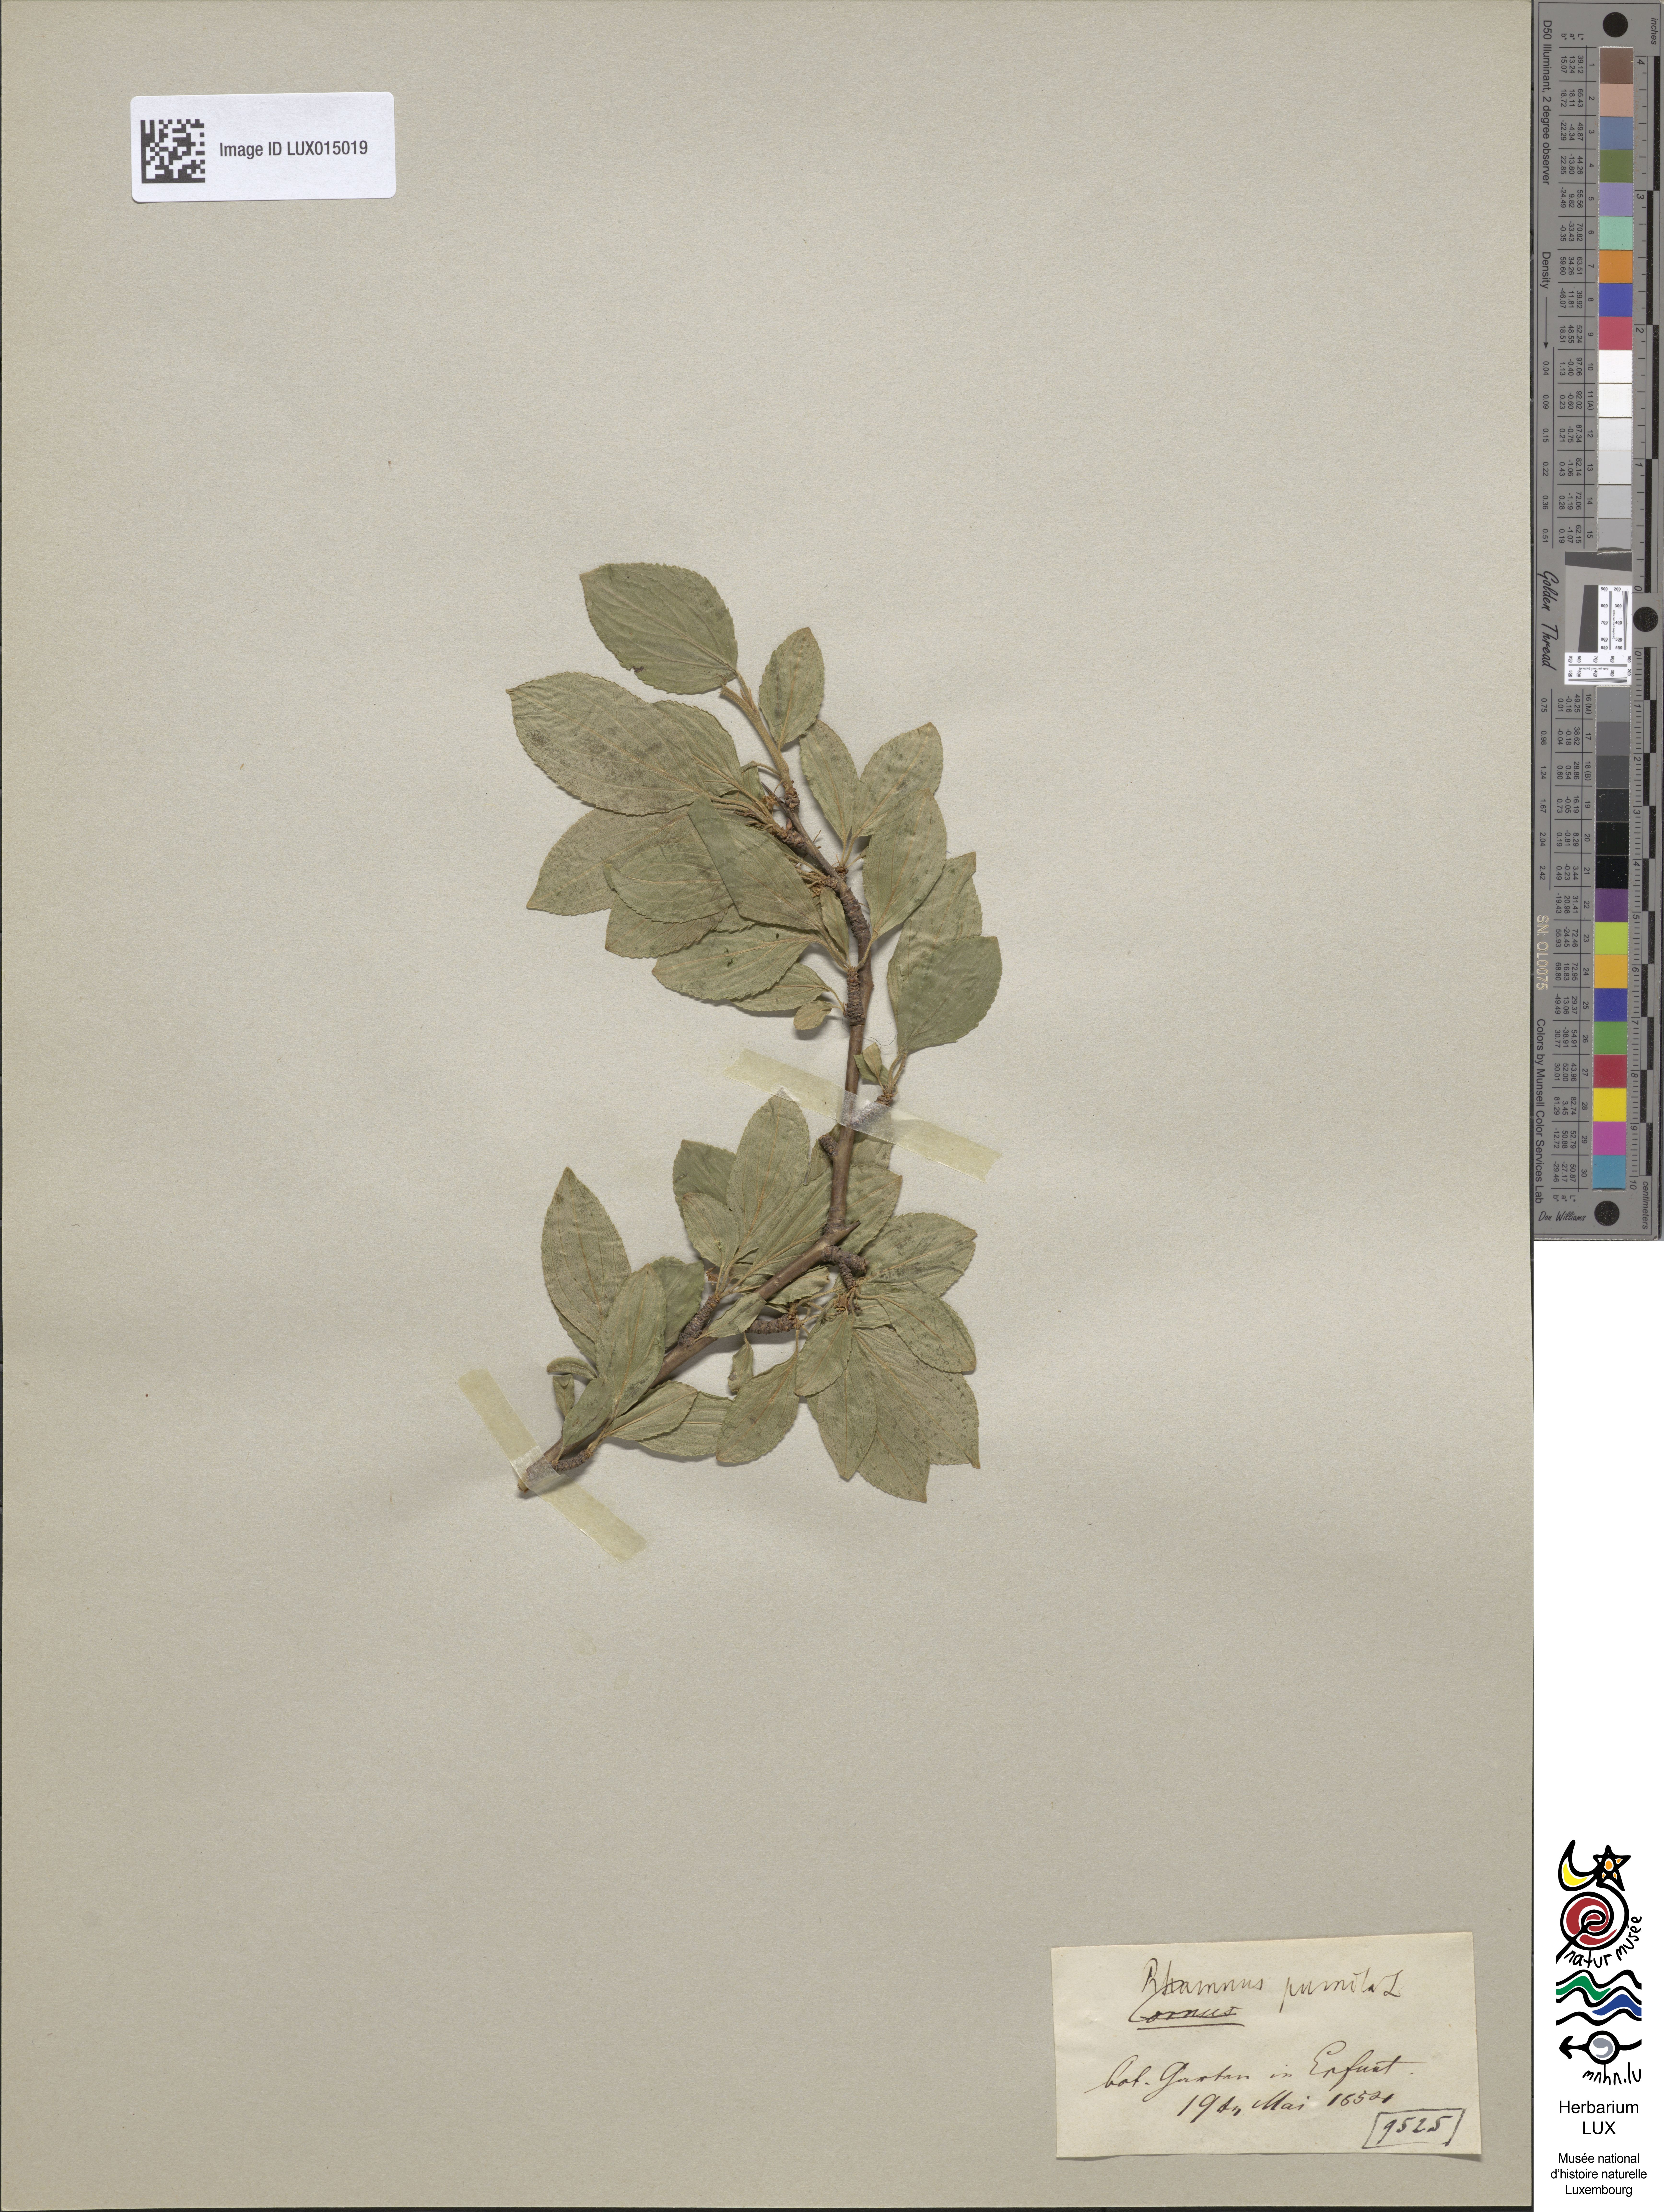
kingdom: Plantae
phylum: Tracheophyta
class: Magnoliopsida
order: Rosales
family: Rhamnaceae
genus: Atadinus
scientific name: Atadinus pumilus
